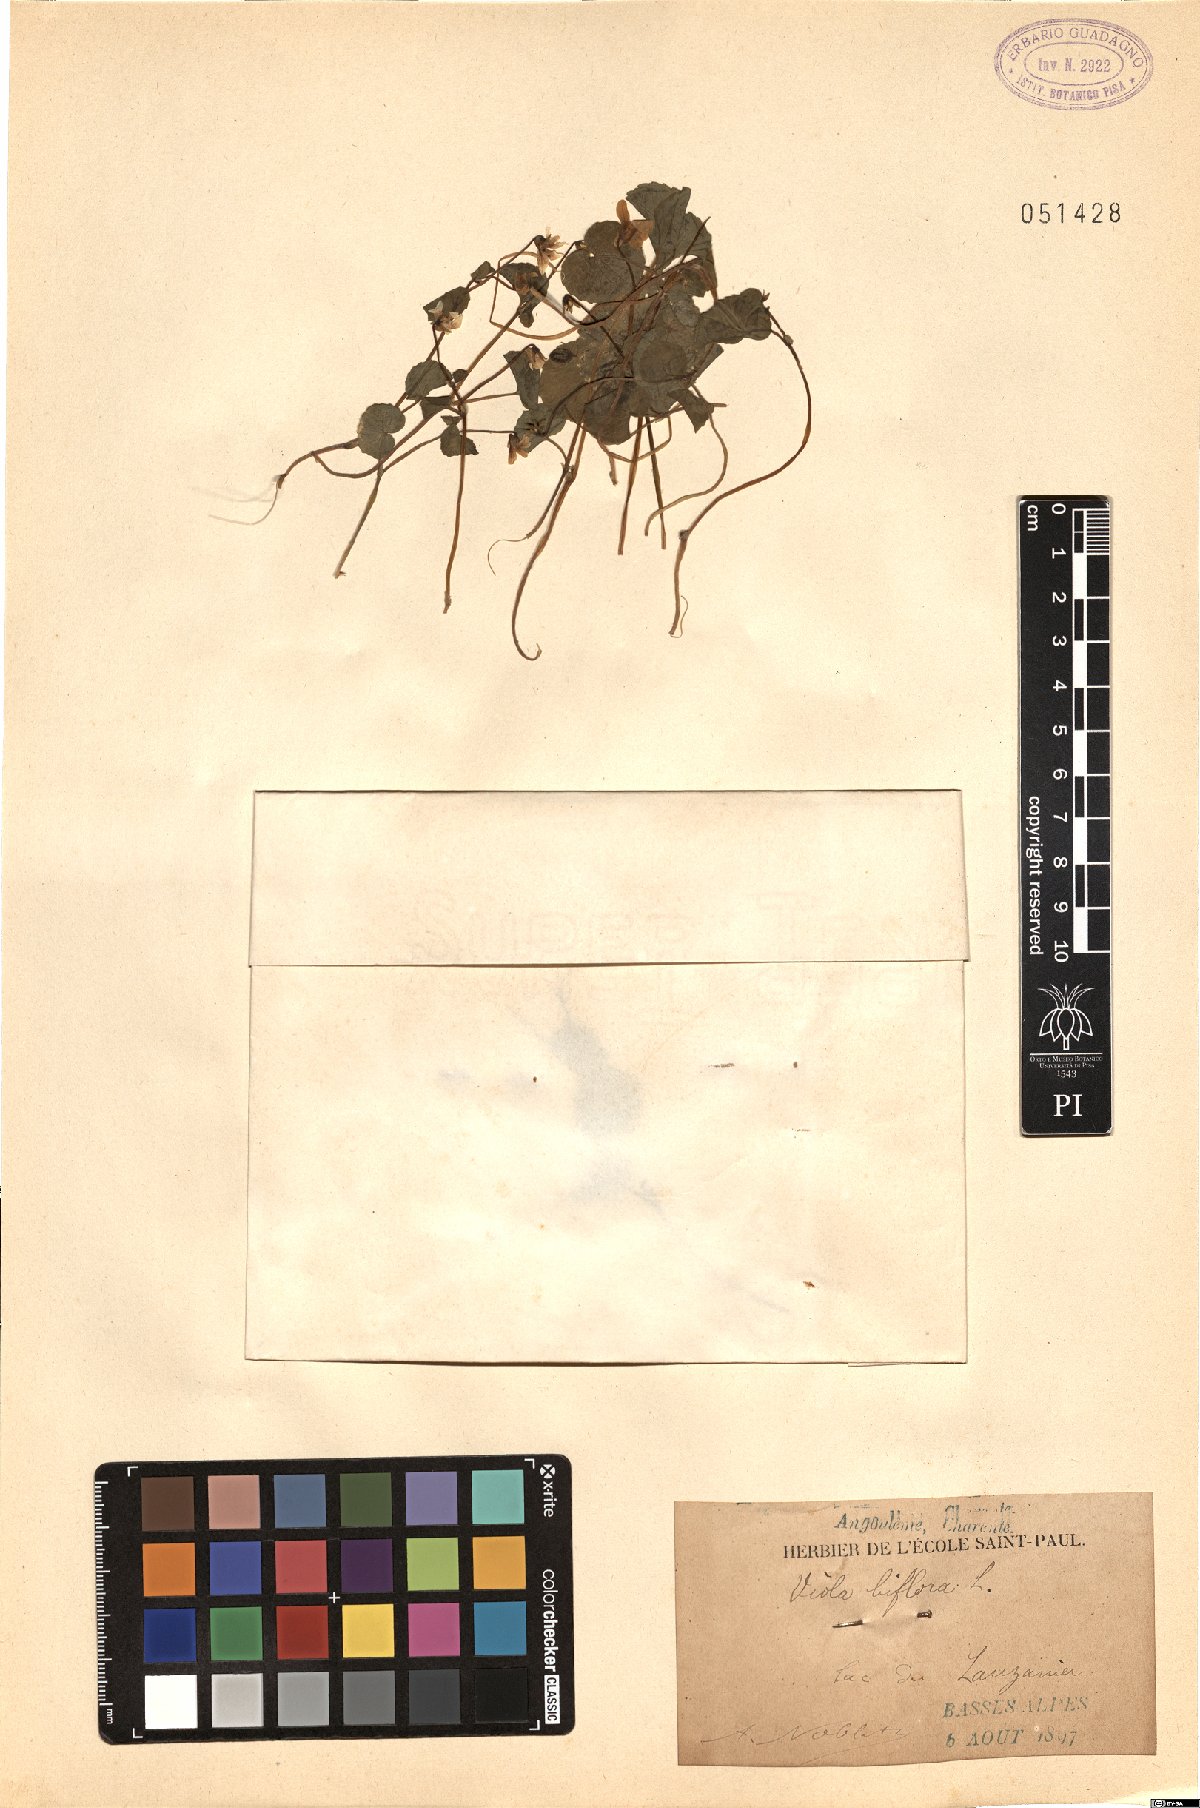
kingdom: Plantae
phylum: Tracheophyta
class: Magnoliopsida
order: Malpighiales
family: Violaceae
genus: Viola
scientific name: Viola biflora
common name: Alpine yellow violet
